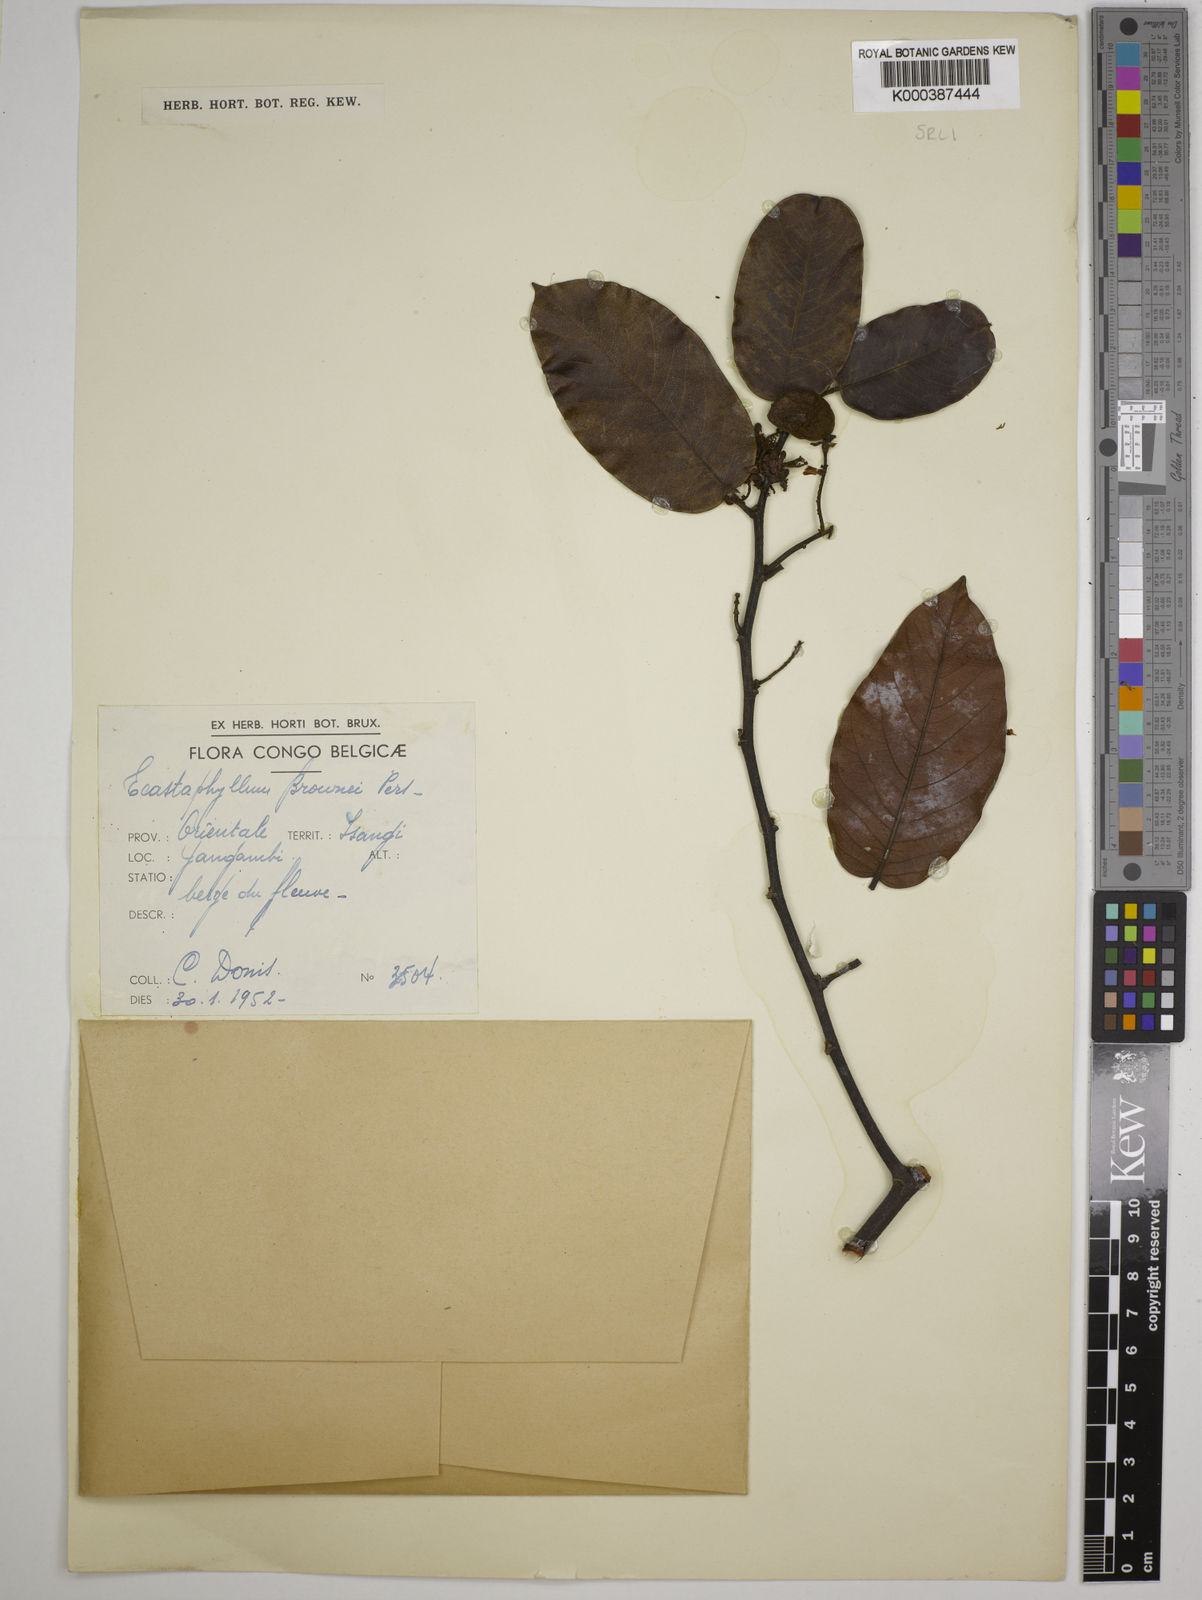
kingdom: Plantae
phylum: Tracheophyta
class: Magnoliopsida
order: Fabales
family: Fabaceae
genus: Dalbergia
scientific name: Dalbergia louisii
